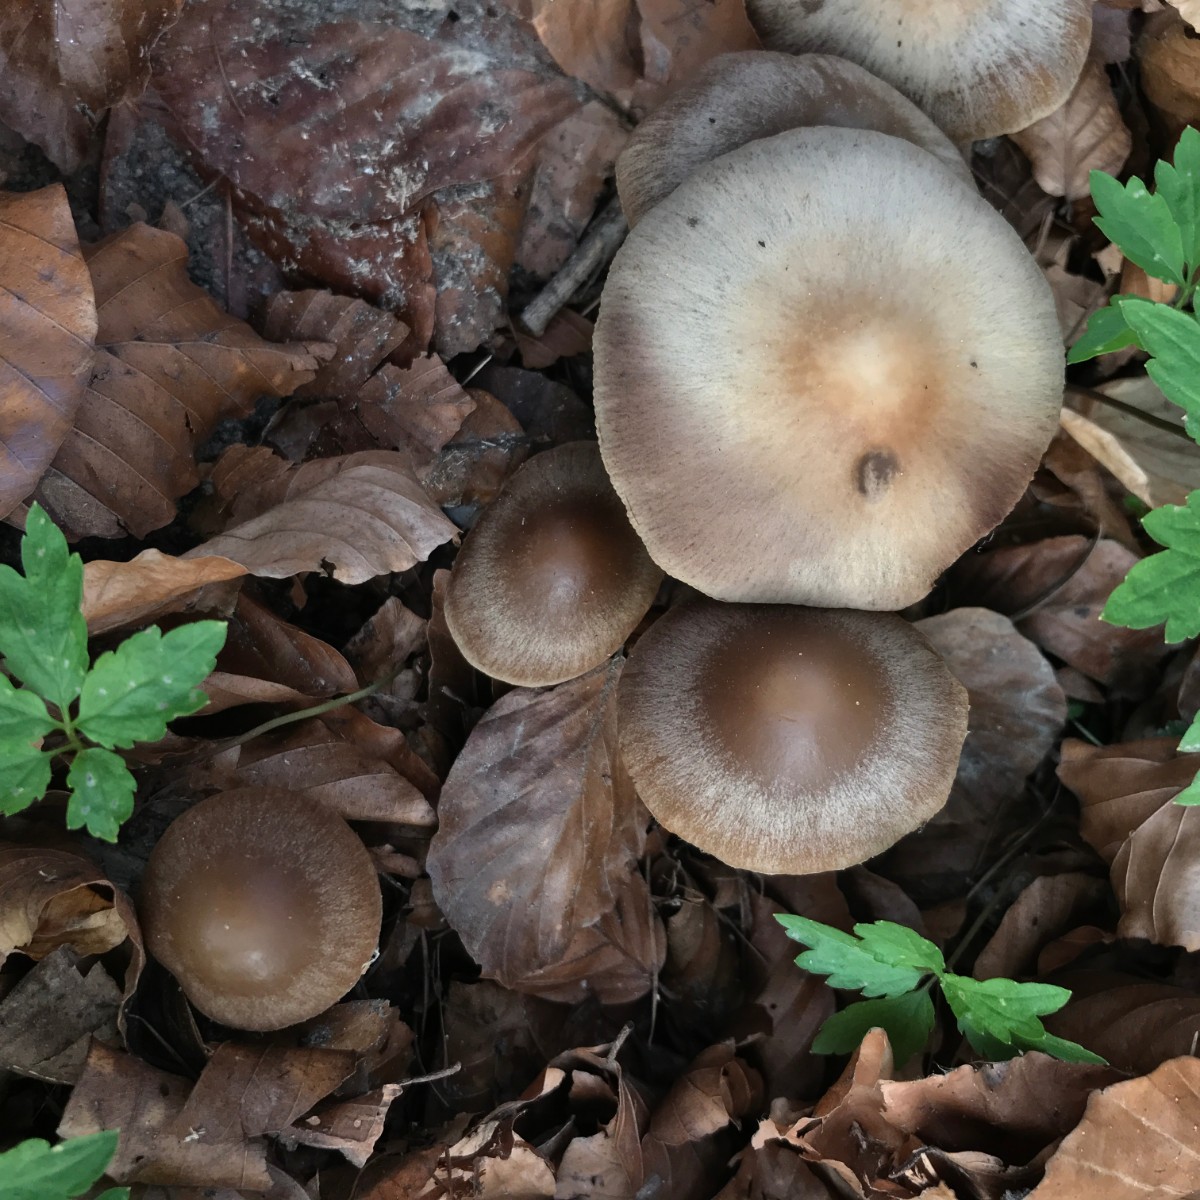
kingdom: Fungi
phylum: Basidiomycota
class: Agaricomycetes
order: Agaricales
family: Psathyrellaceae
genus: Psathyrella
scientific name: Psathyrella spadiceogrisea
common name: gråbrun mørkhat
